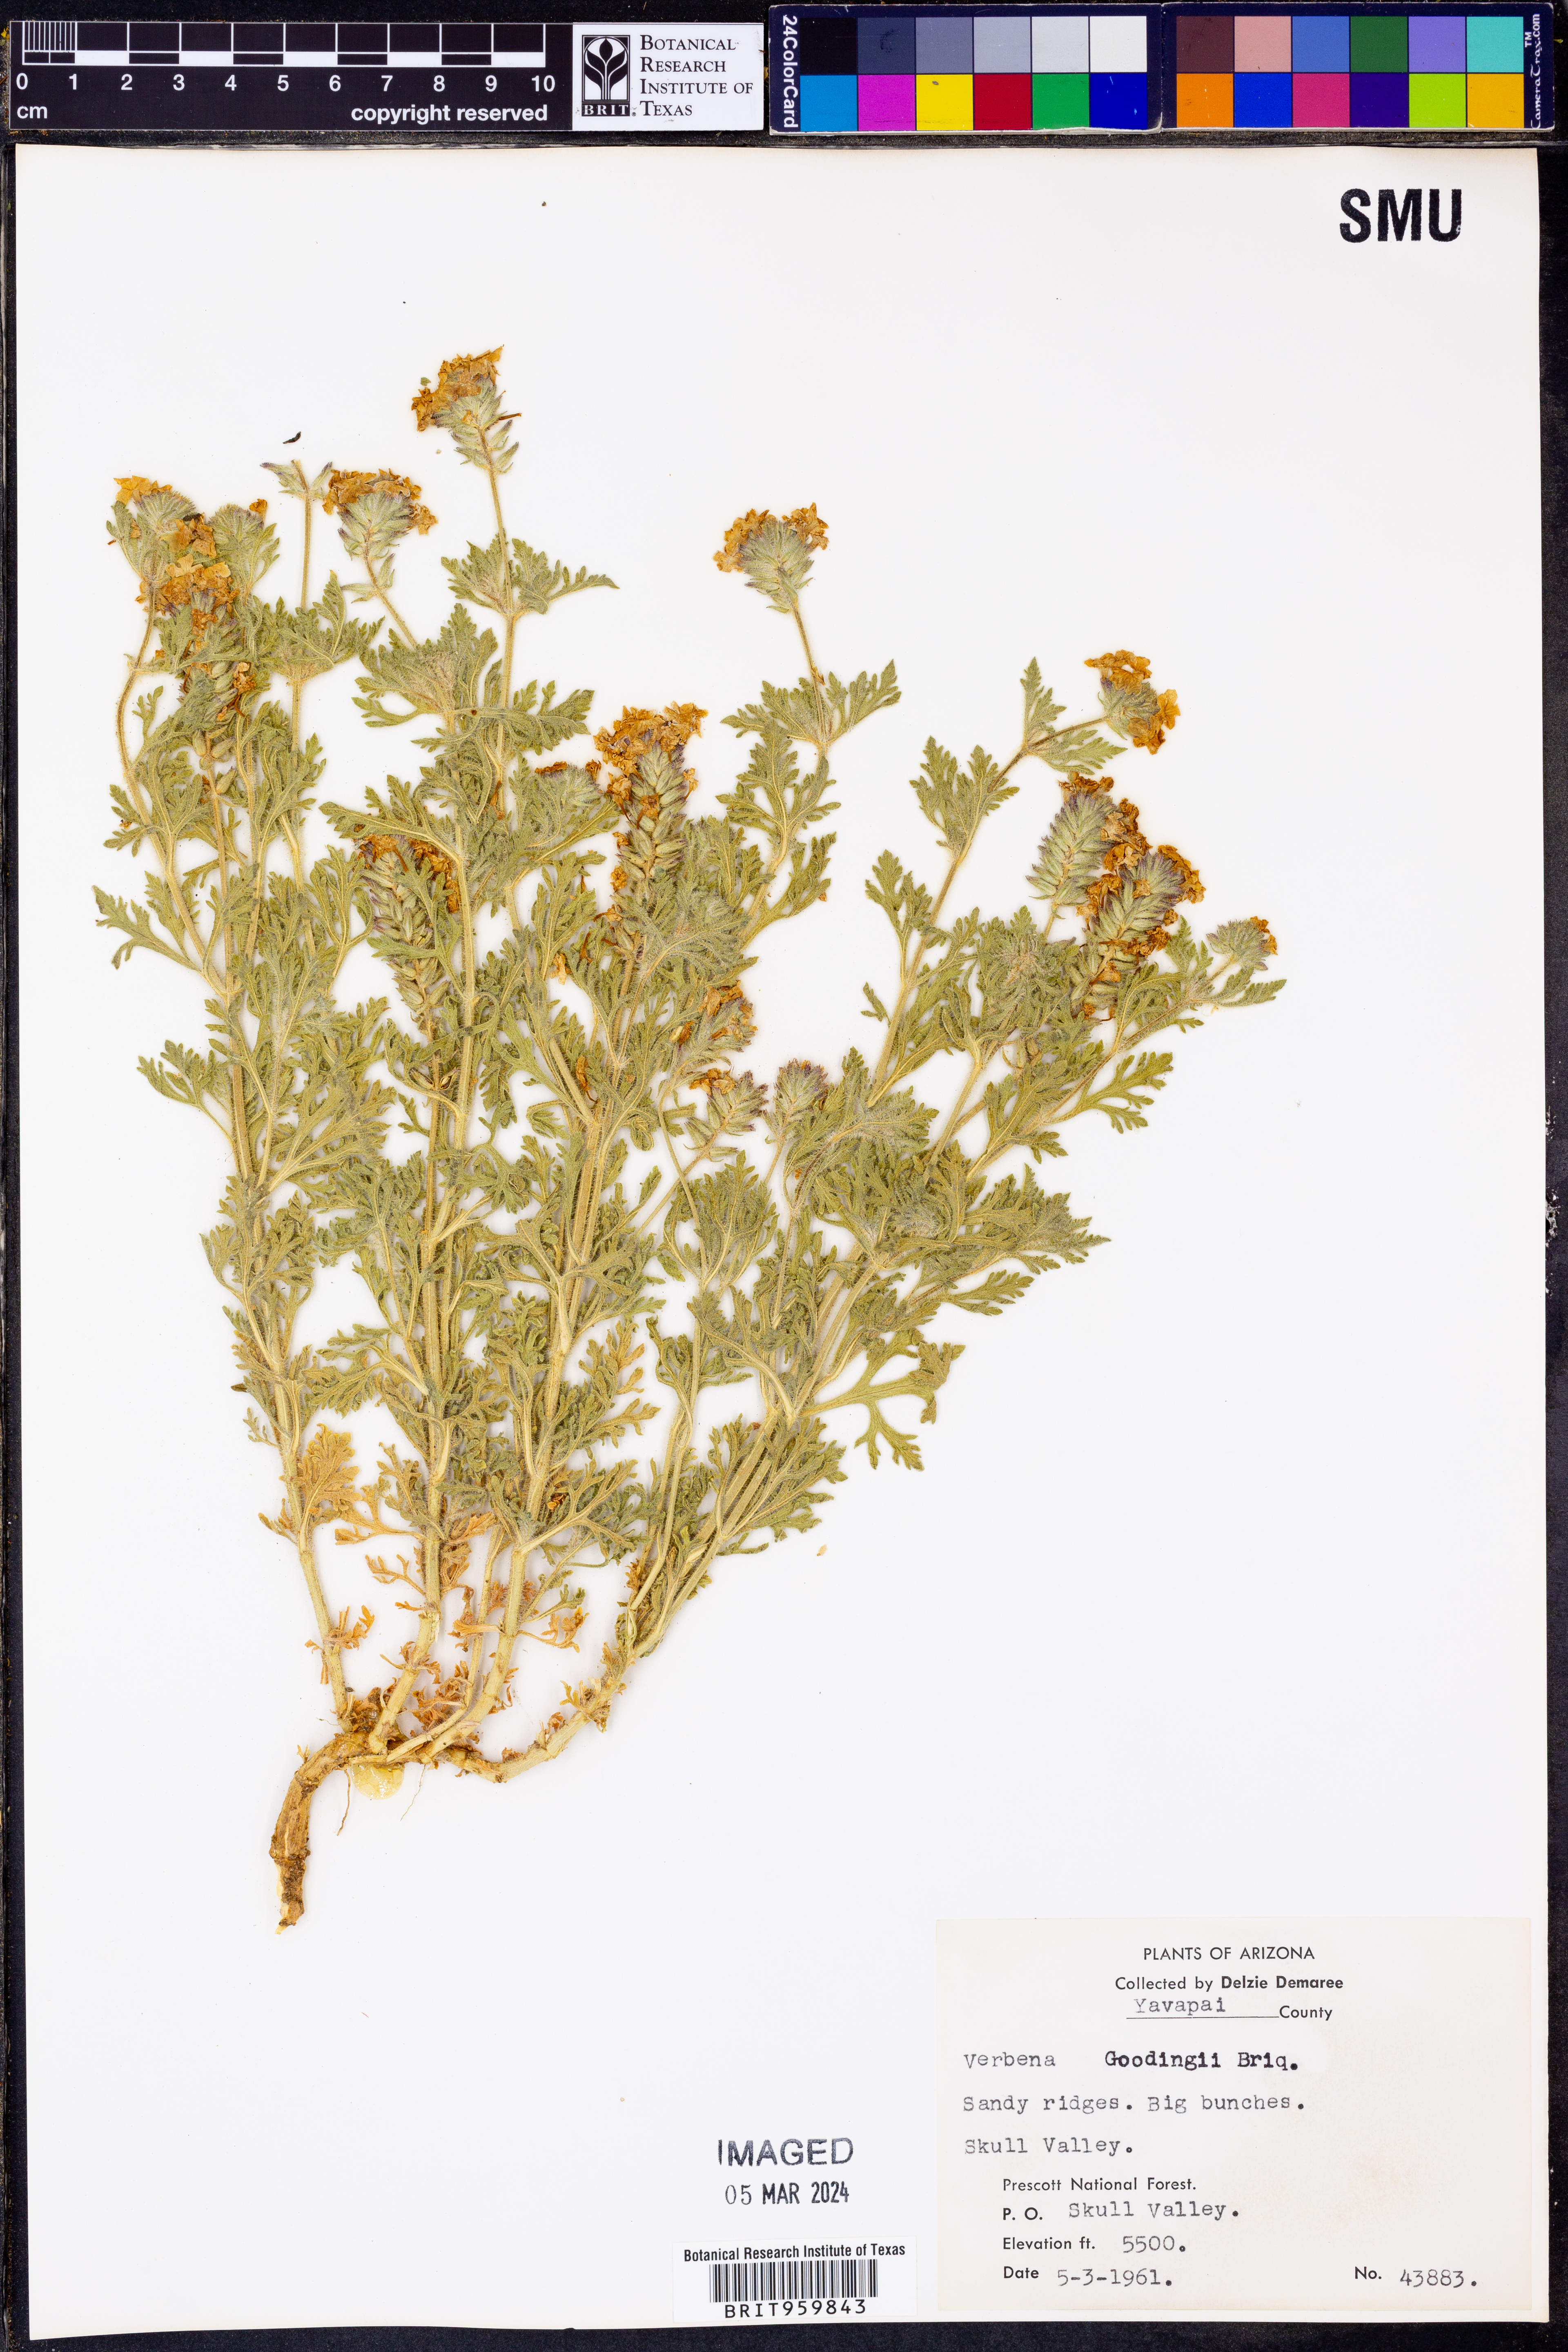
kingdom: Plantae
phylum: Tracheophyta
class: Magnoliopsida
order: Lamiales
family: Verbenaceae
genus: Verbena
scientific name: Verbena bipinnatifida
